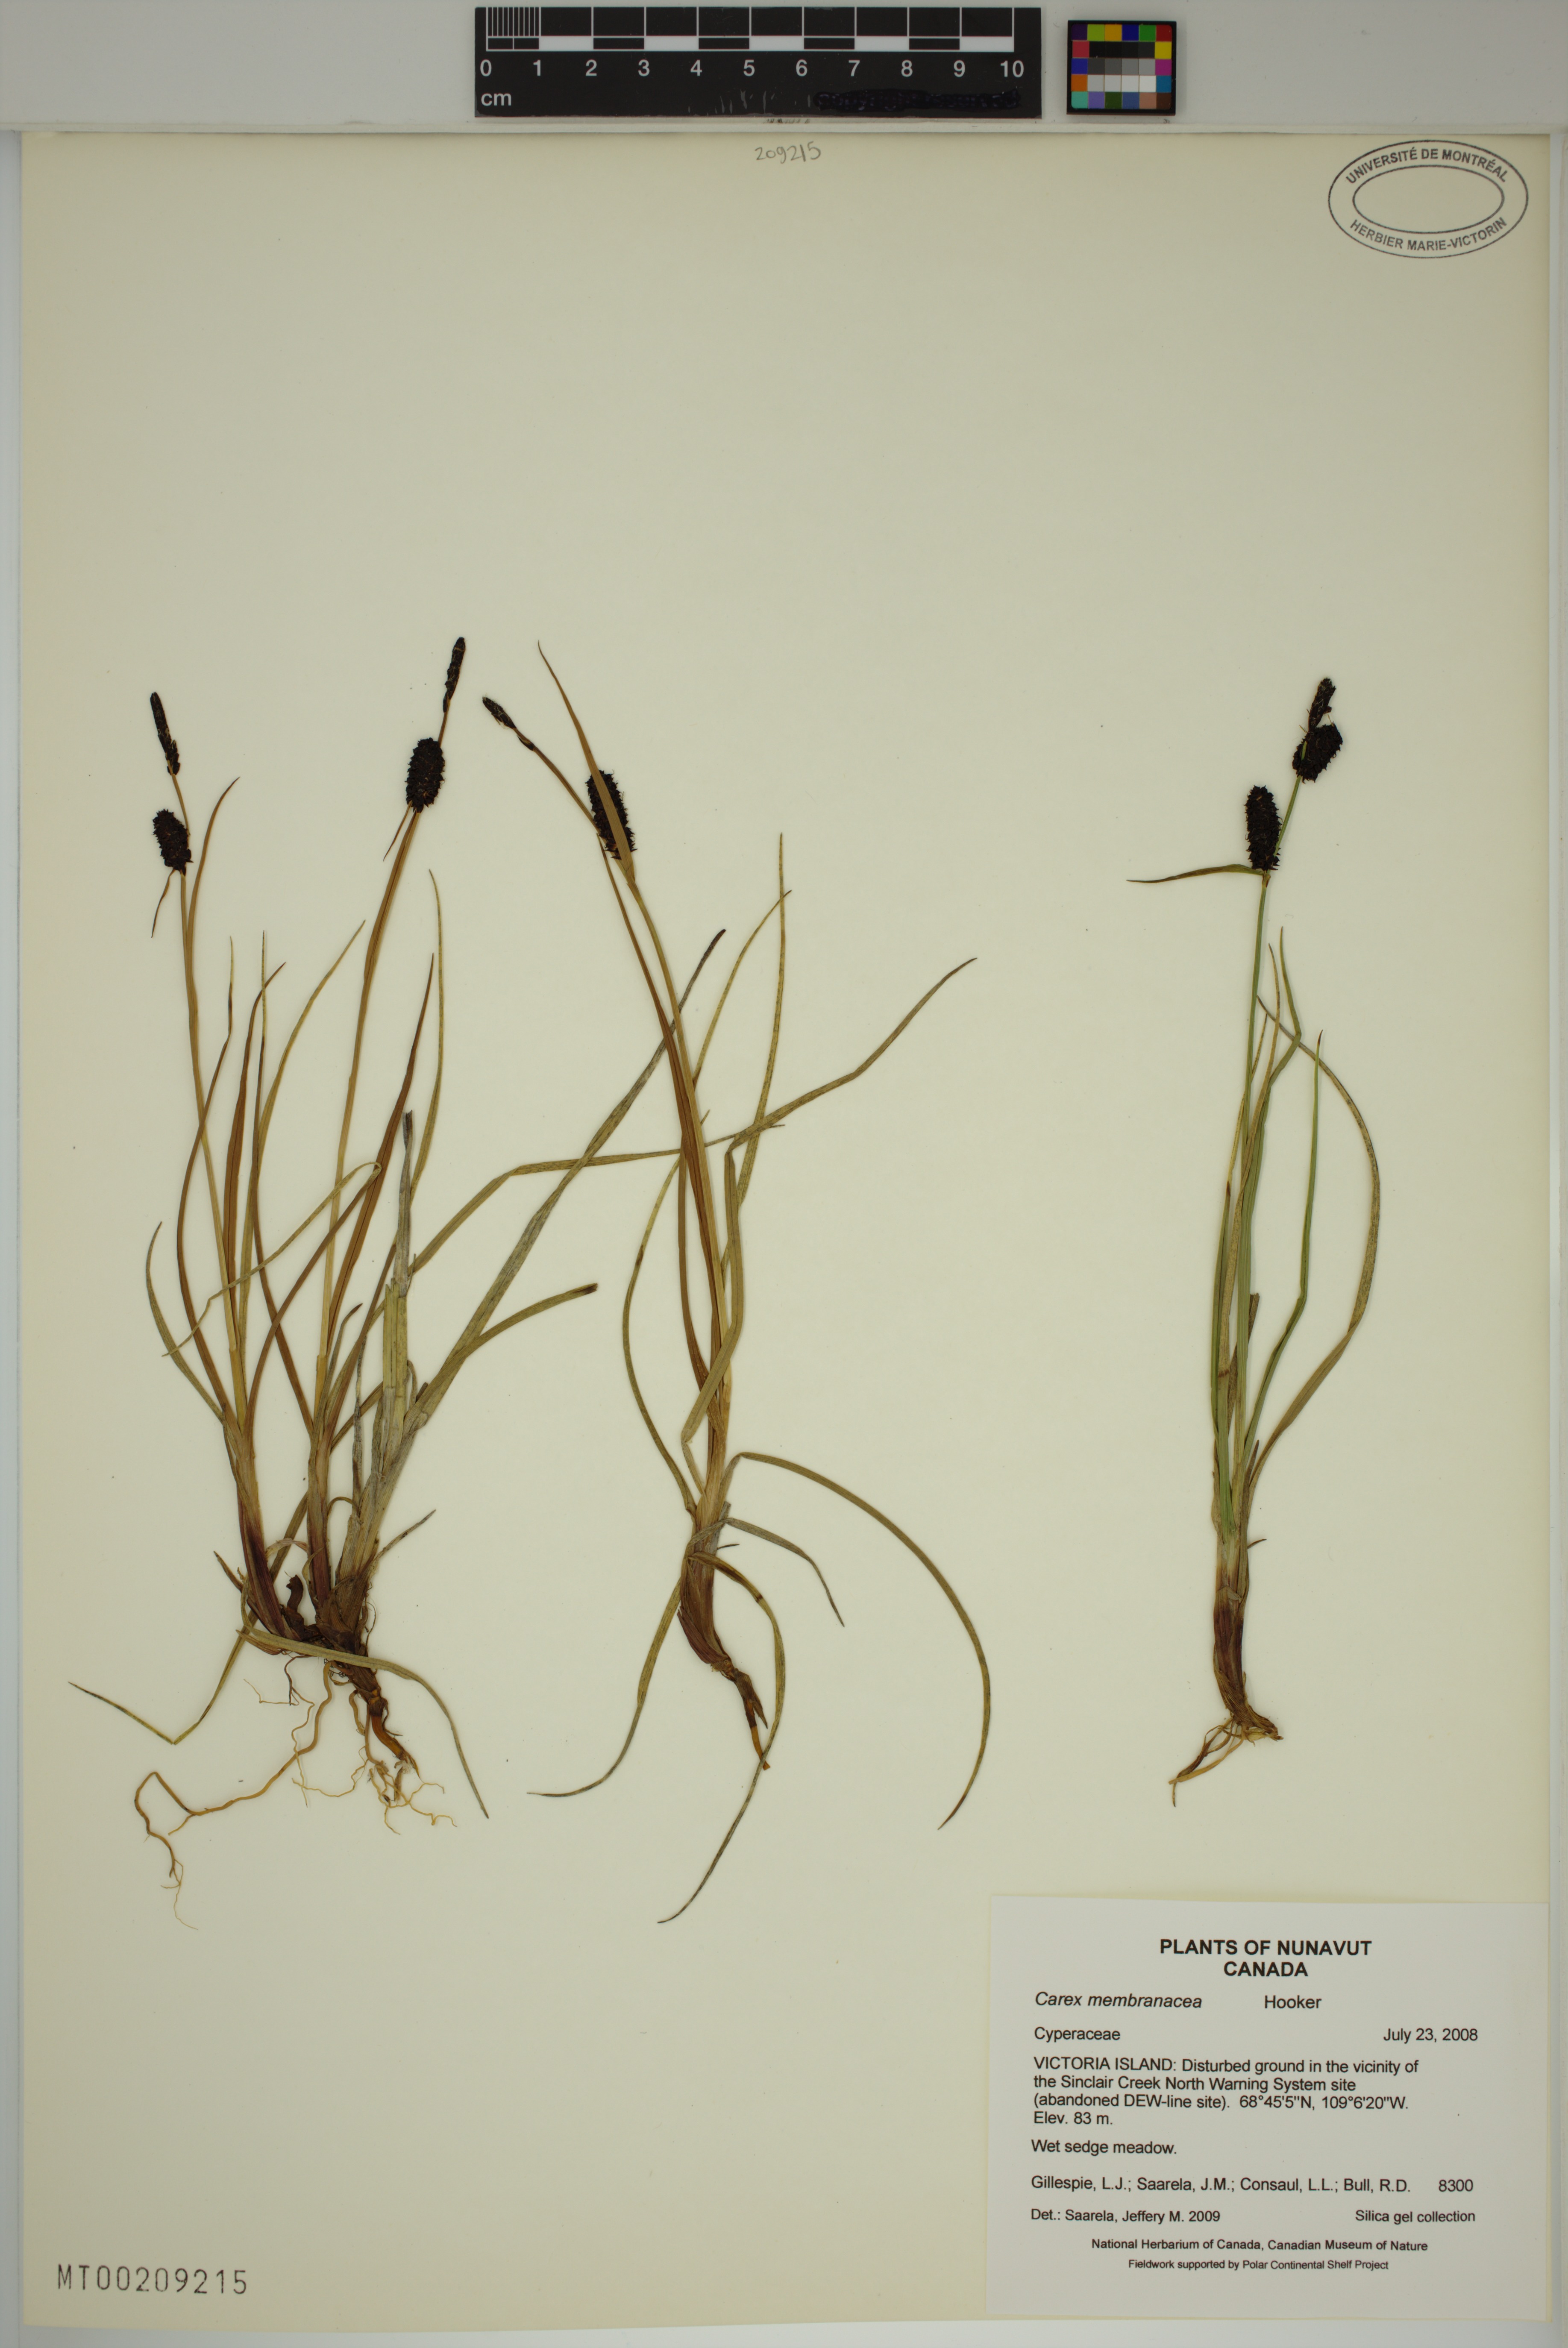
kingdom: Plantae
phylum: Tracheophyta
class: Liliopsida
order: Poales
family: Cyperaceae
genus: Carex
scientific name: Carex membranacea
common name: Fragile sedge
